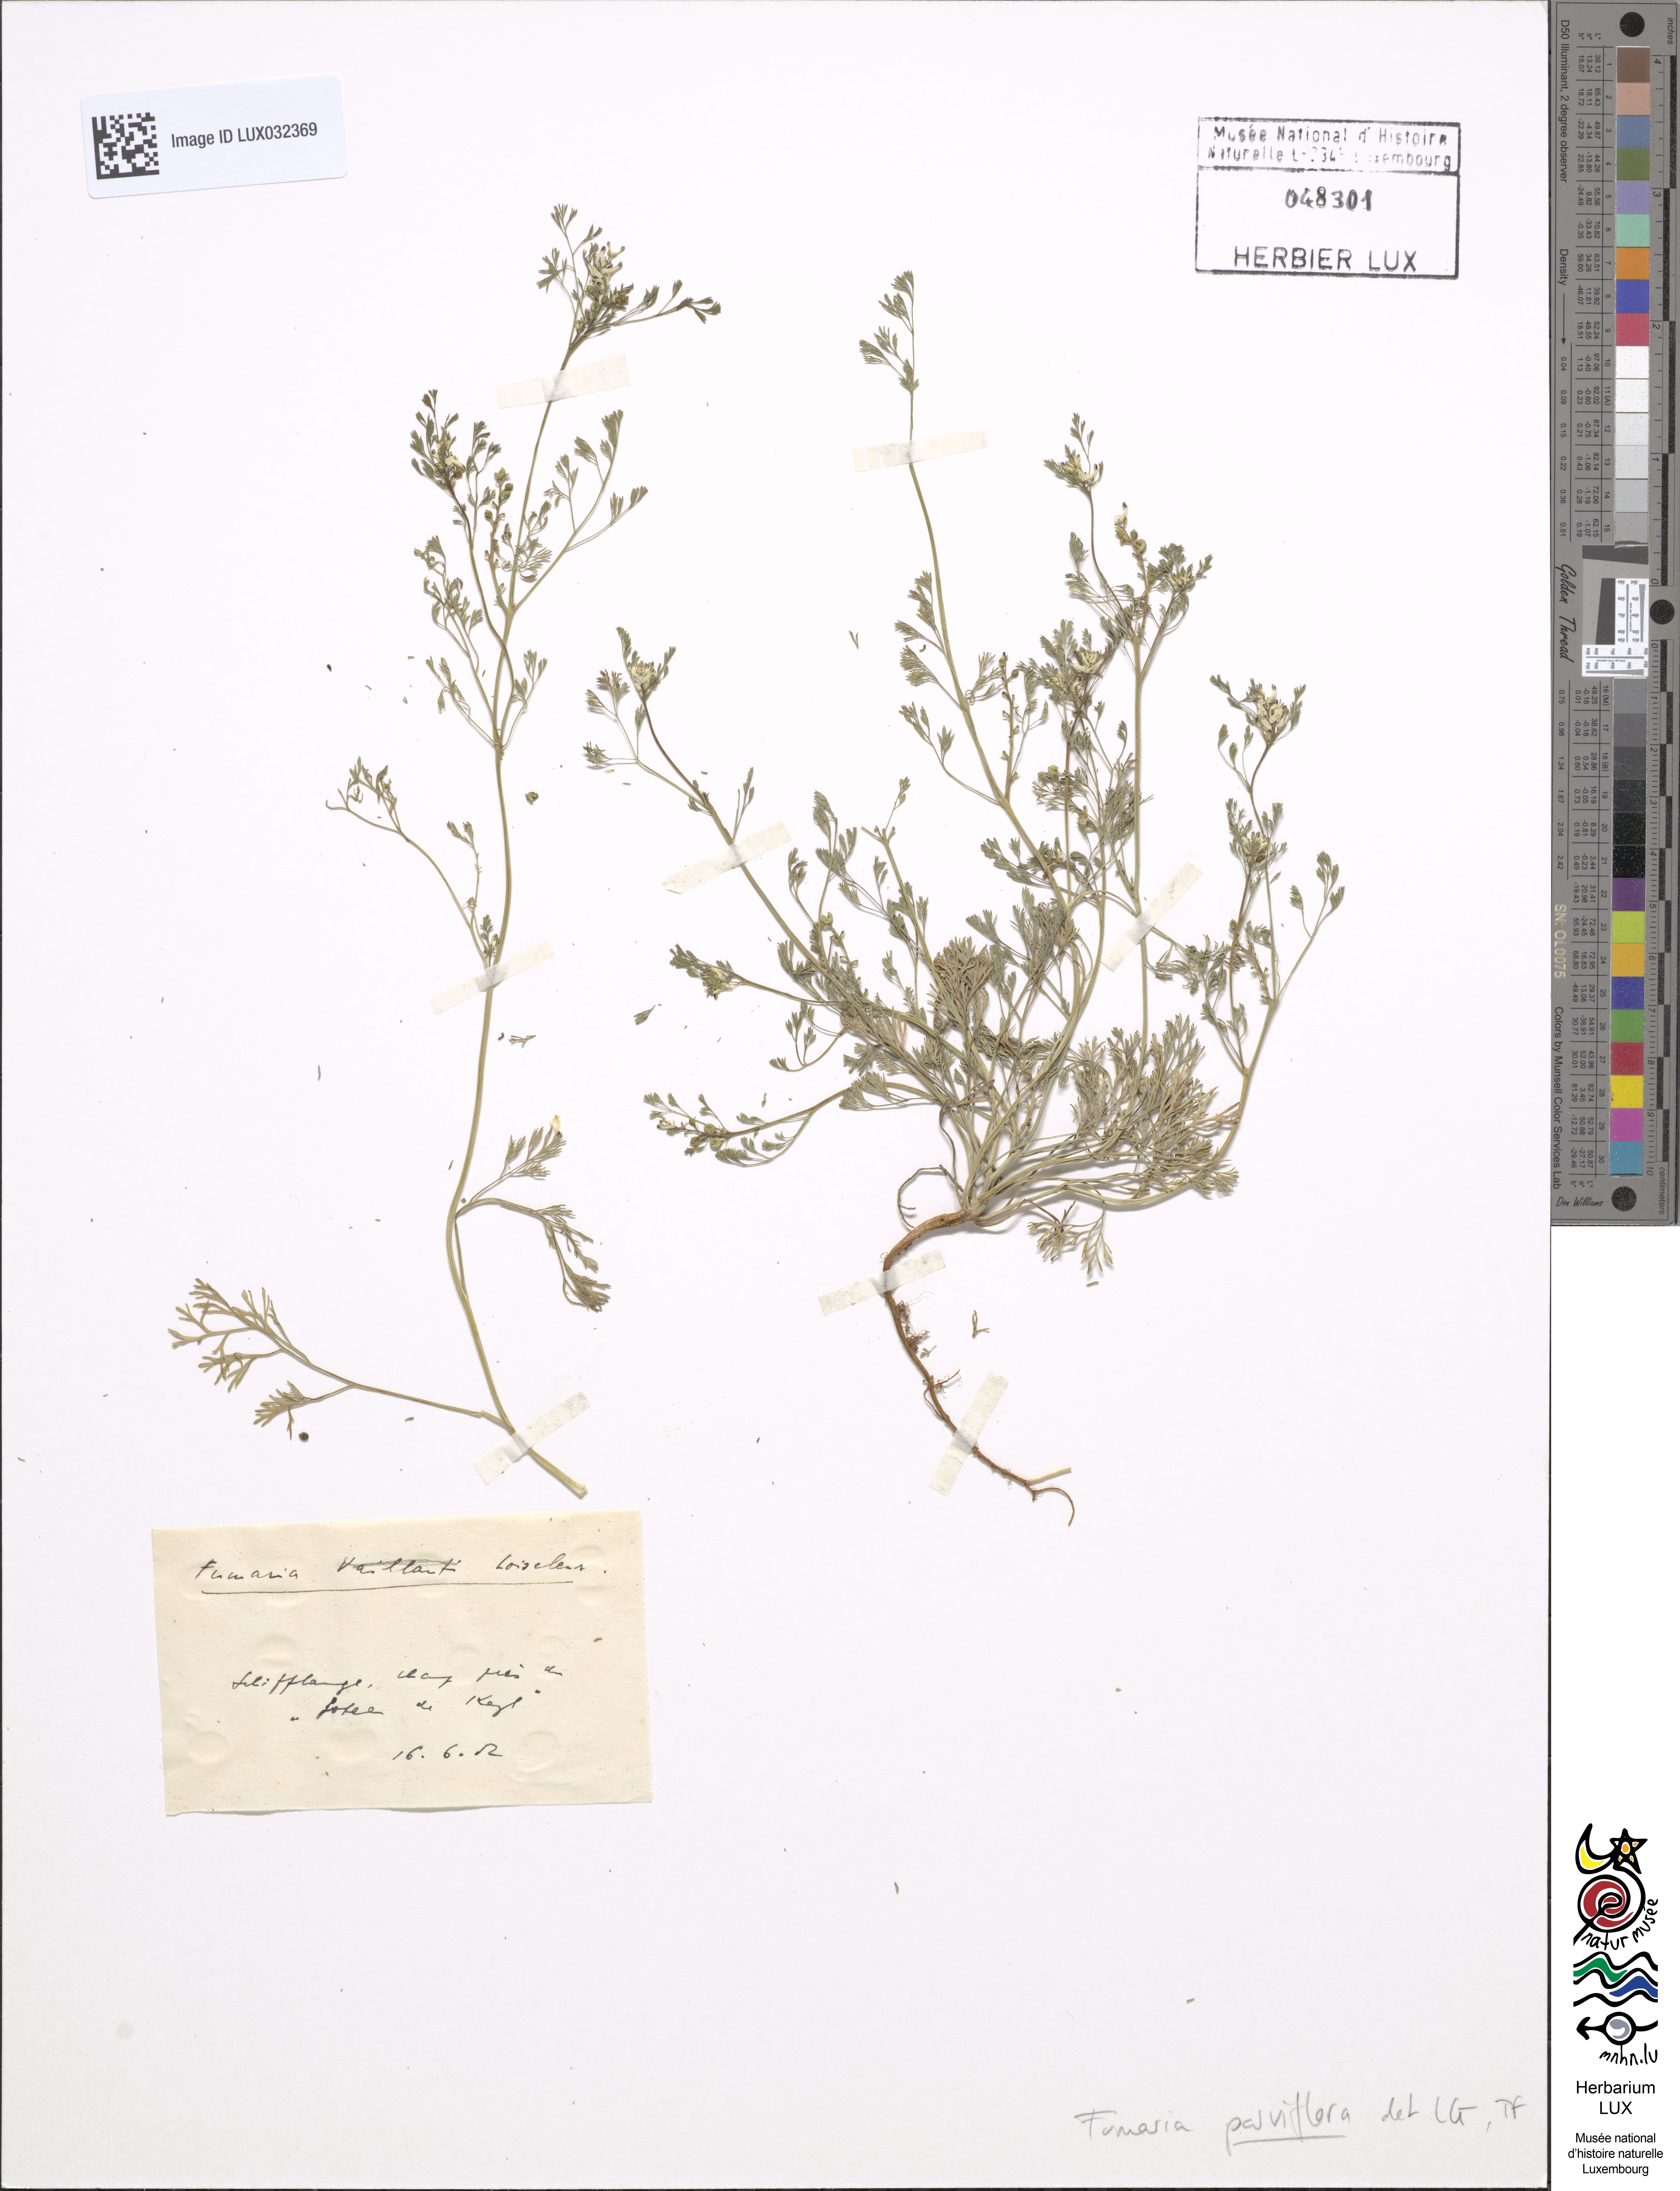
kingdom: Plantae
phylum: Tracheophyta
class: Magnoliopsida
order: Ranunculales
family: Papaveraceae
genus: Fumaria
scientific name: Fumaria parviflora
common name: Fine-leaved fumitory
